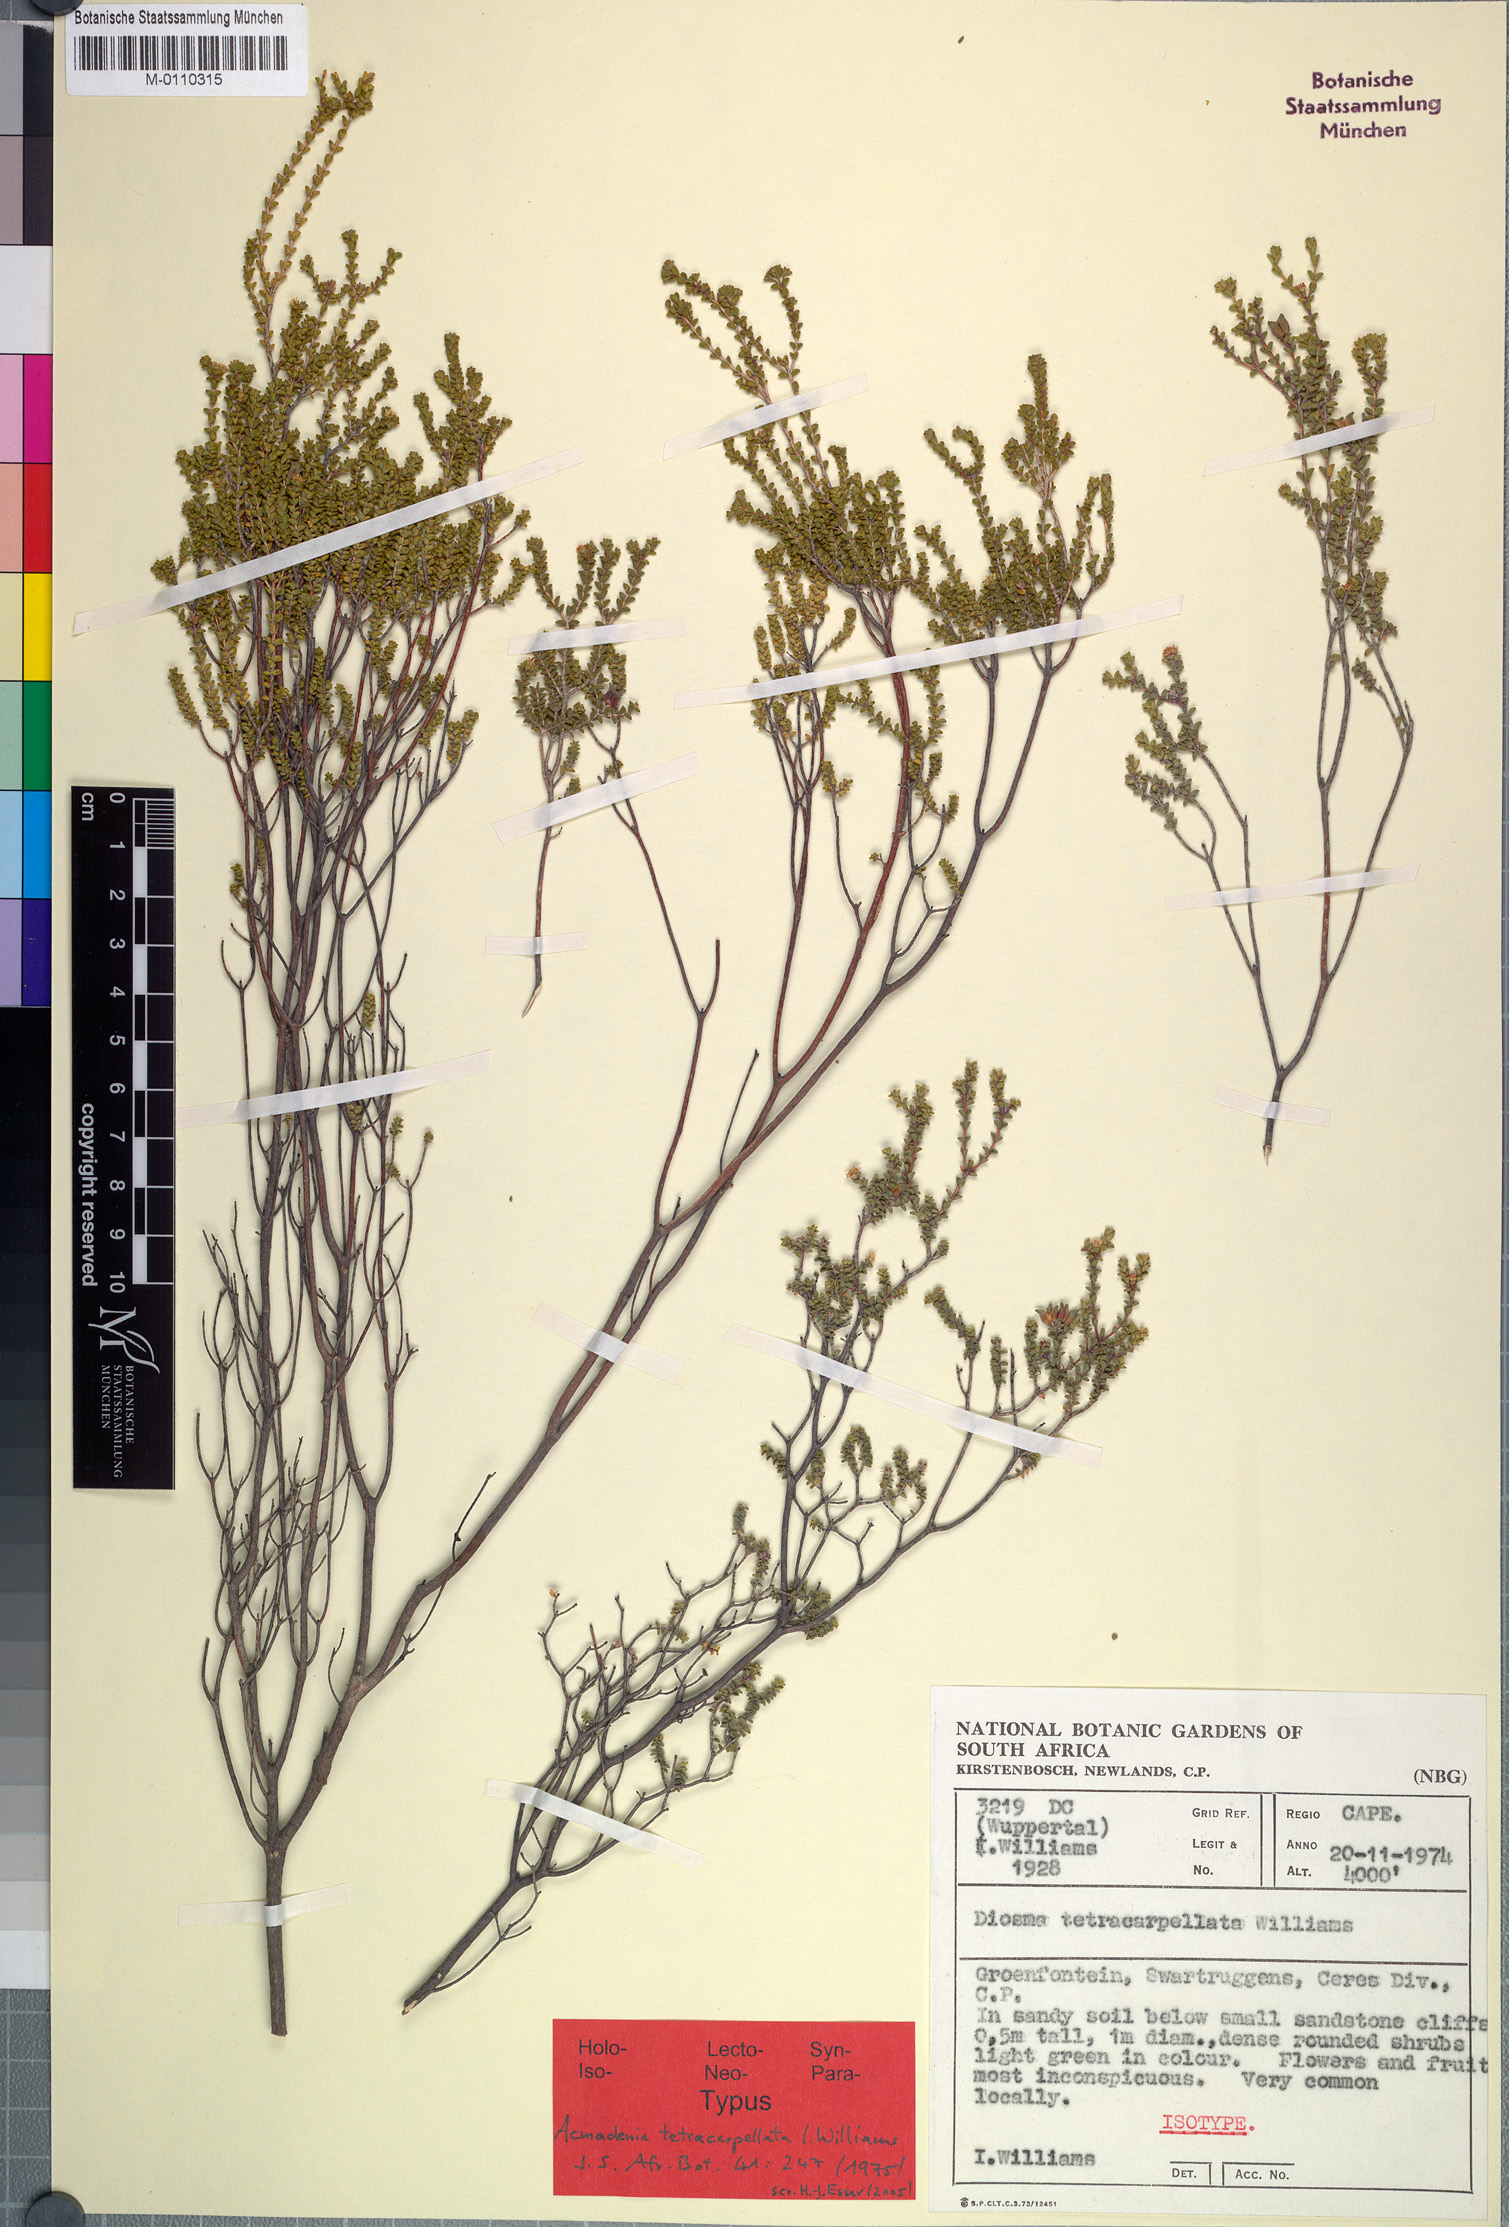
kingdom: Plantae
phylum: Tracheophyta
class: Magnoliopsida
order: Sapindales
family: Rutaceae
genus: Acmadenia
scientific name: Acmadenia tetracarpellata
